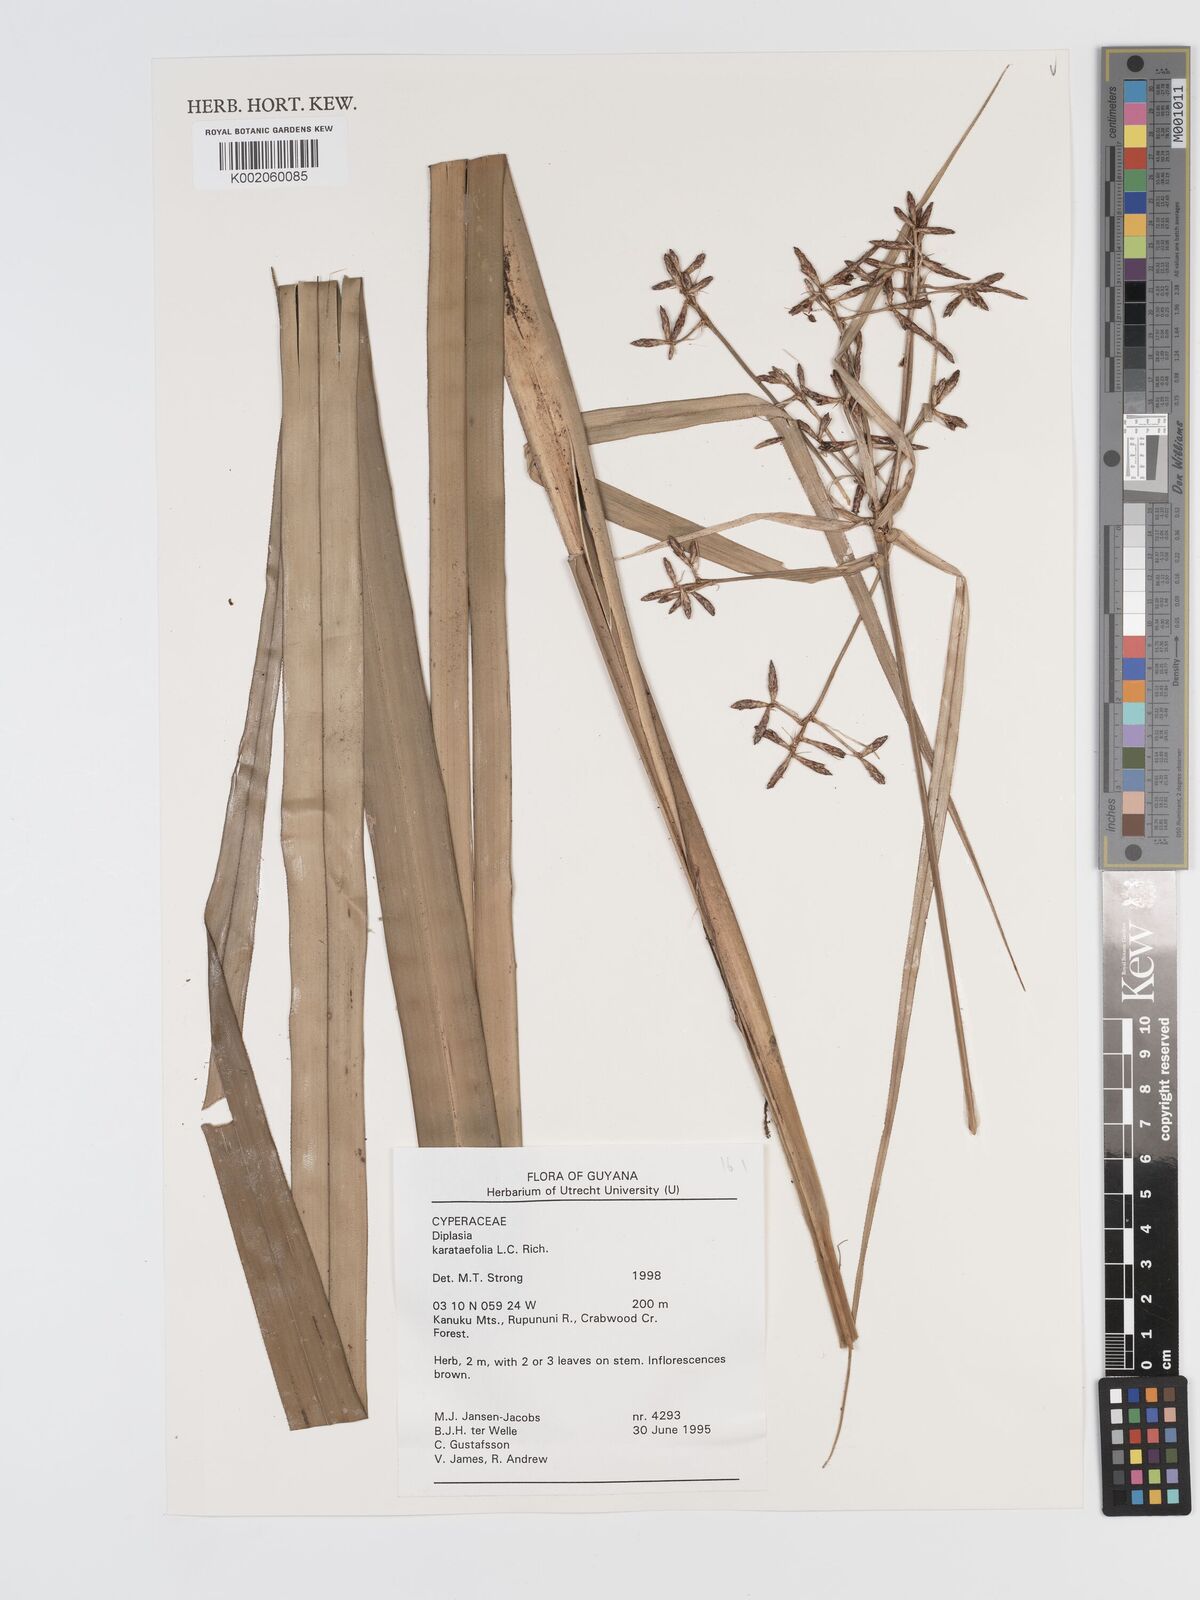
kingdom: Plantae
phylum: Tracheophyta
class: Liliopsida
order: Poales
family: Cyperaceae
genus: Diplasia
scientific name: Diplasia karatifolia
